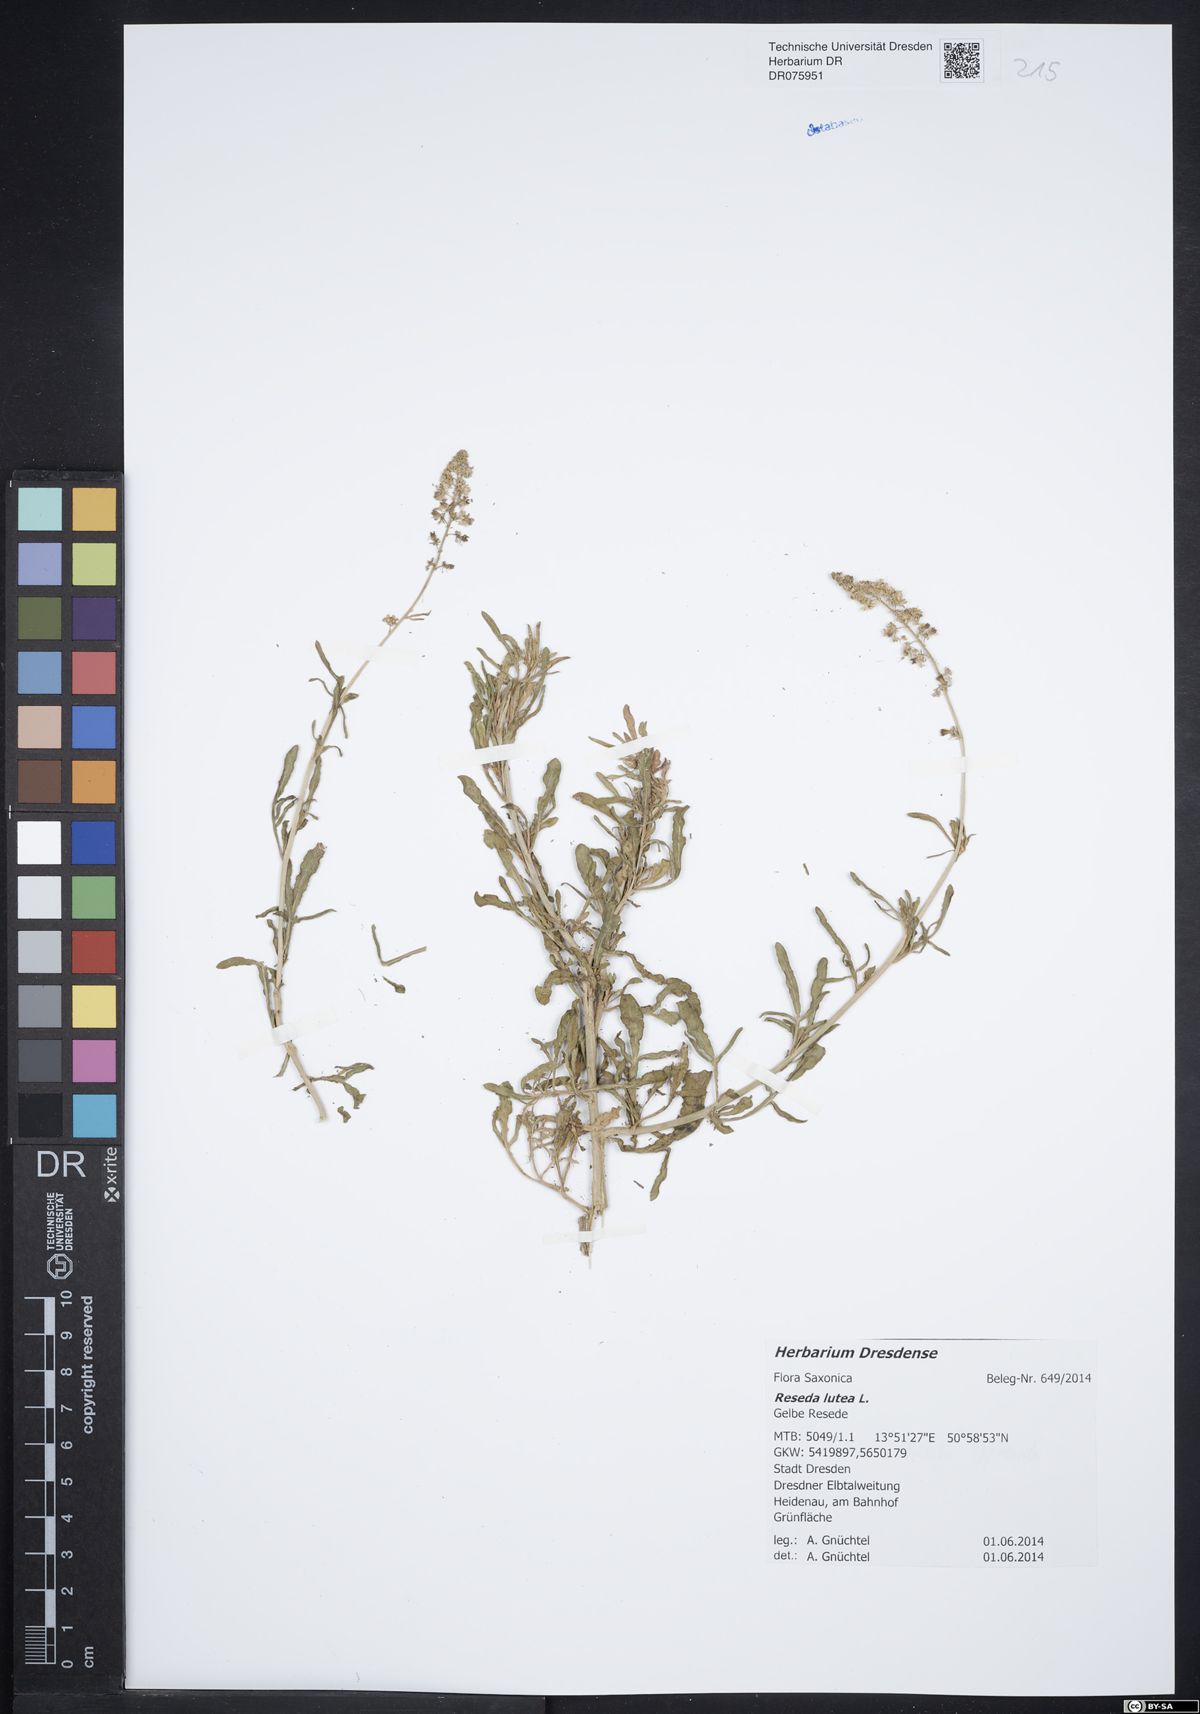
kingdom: Plantae
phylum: Tracheophyta
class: Magnoliopsida
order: Brassicales
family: Resedaceae
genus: Reseda
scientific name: Reseda lutea
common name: Wild mignonette
